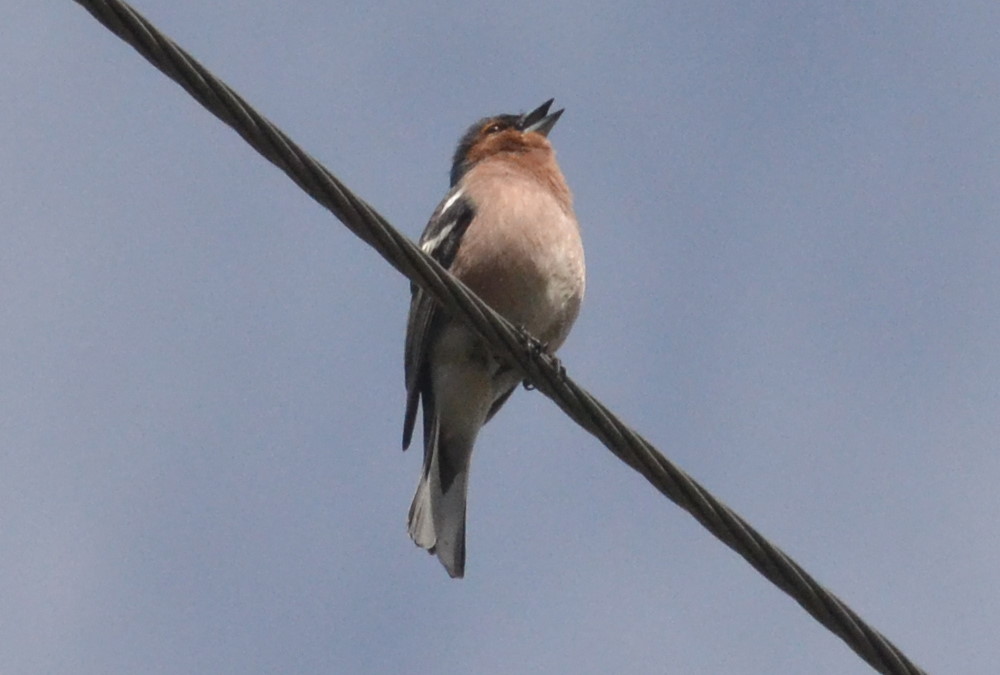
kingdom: Animalia
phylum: Chordata
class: Aves
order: Passeriformes
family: Fringillidae
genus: Fringilla
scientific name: Fringilla coelebs
